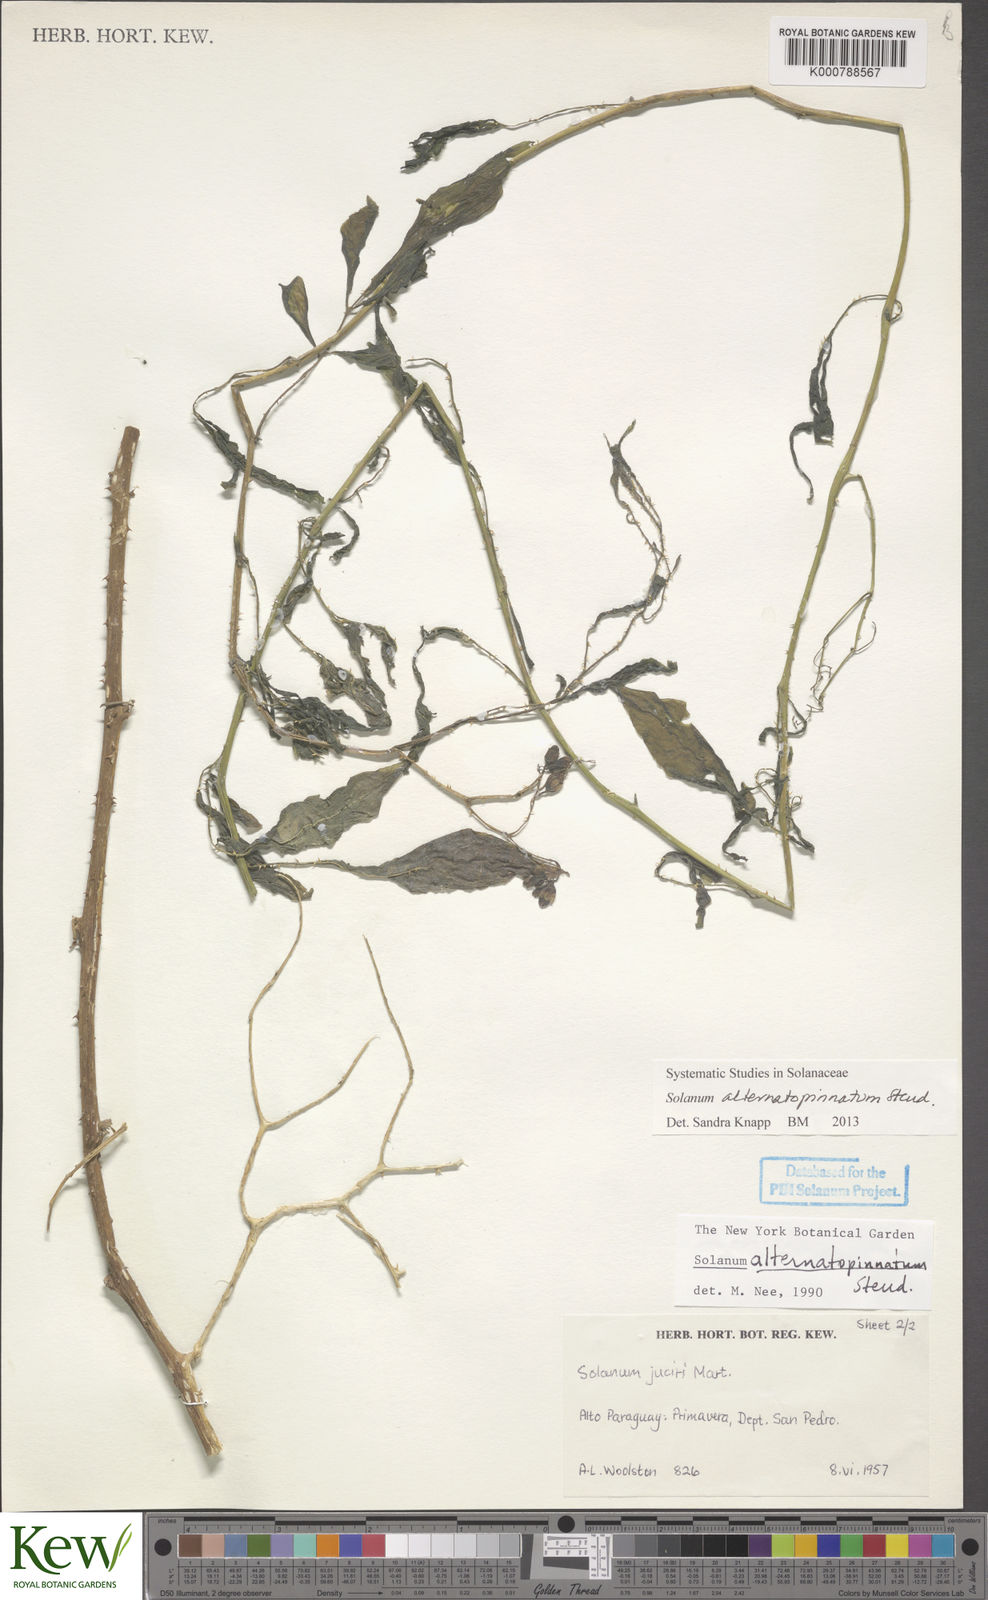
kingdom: Plantae
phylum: Tracheophyta
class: Magnoliopsida
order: Solanales
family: Solanaceae
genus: Solanum
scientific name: Solanum
